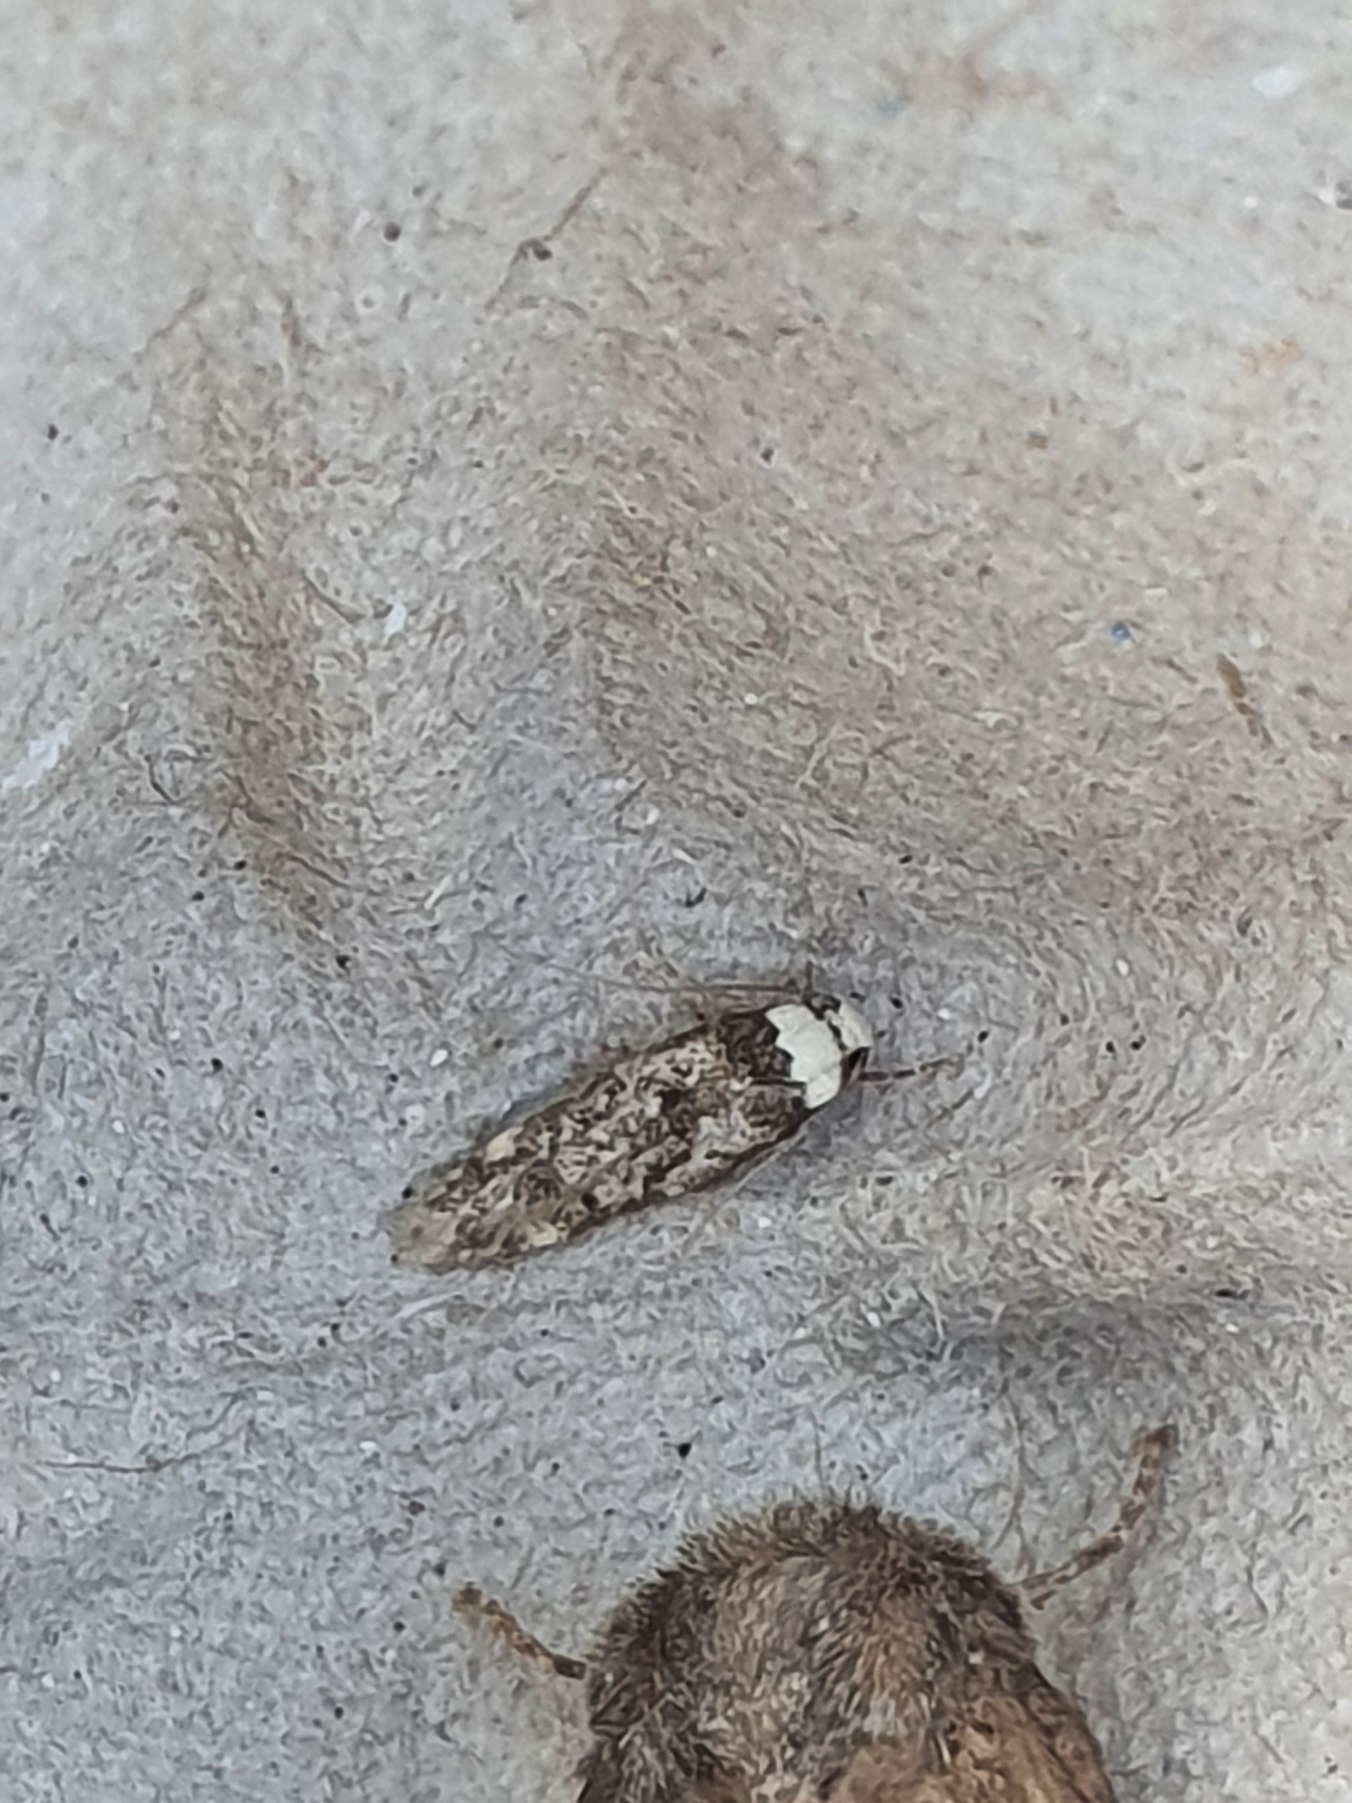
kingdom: Animalia
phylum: Arthropoda
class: Insecta
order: Lepidoptera
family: Oecophoridae
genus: Endrosis
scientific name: Endrosis sarcitrella
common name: Klistermøl
